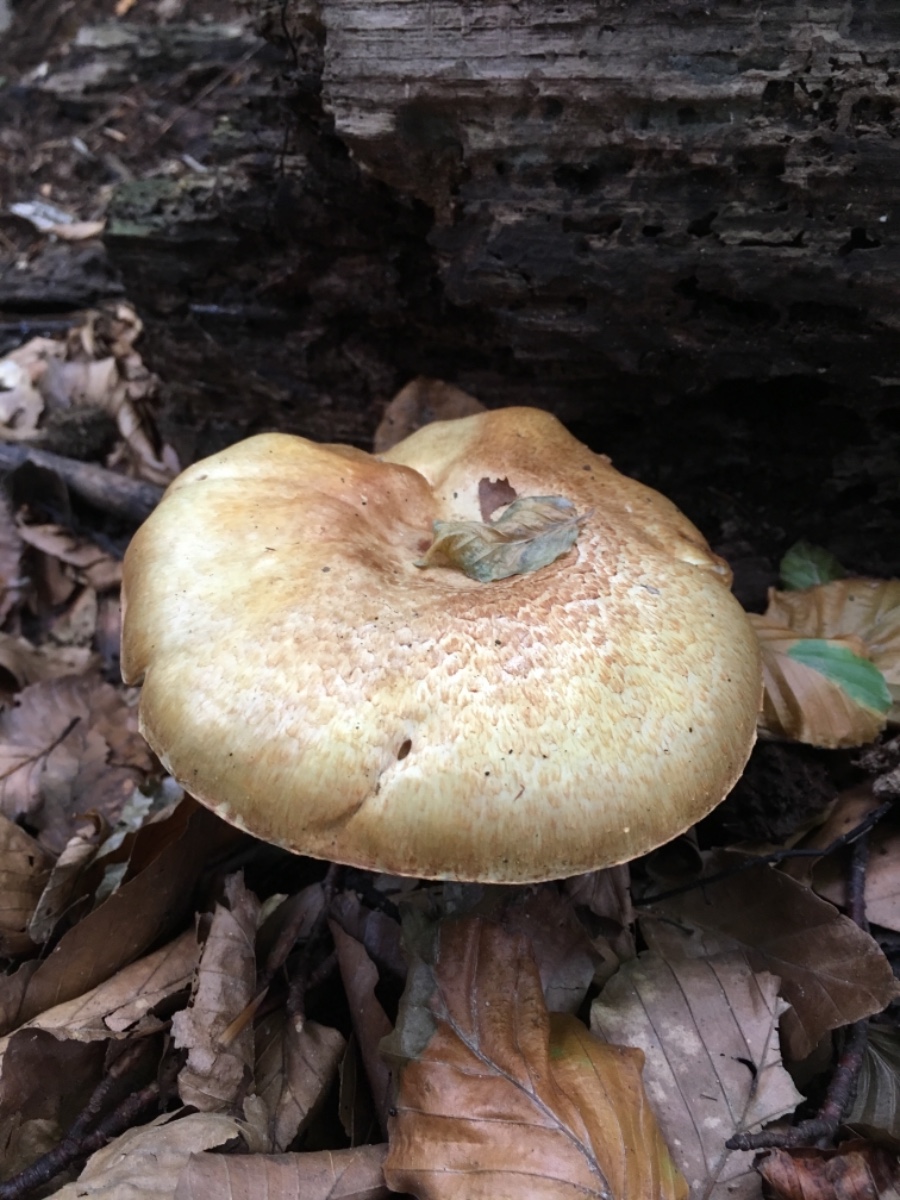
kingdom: Fungi
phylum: Basidiomycota
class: Agaricomycetes
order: Agaricales
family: Agaricaceae
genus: Agaricus
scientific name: Agaricus augustus
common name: prægtig champignon
